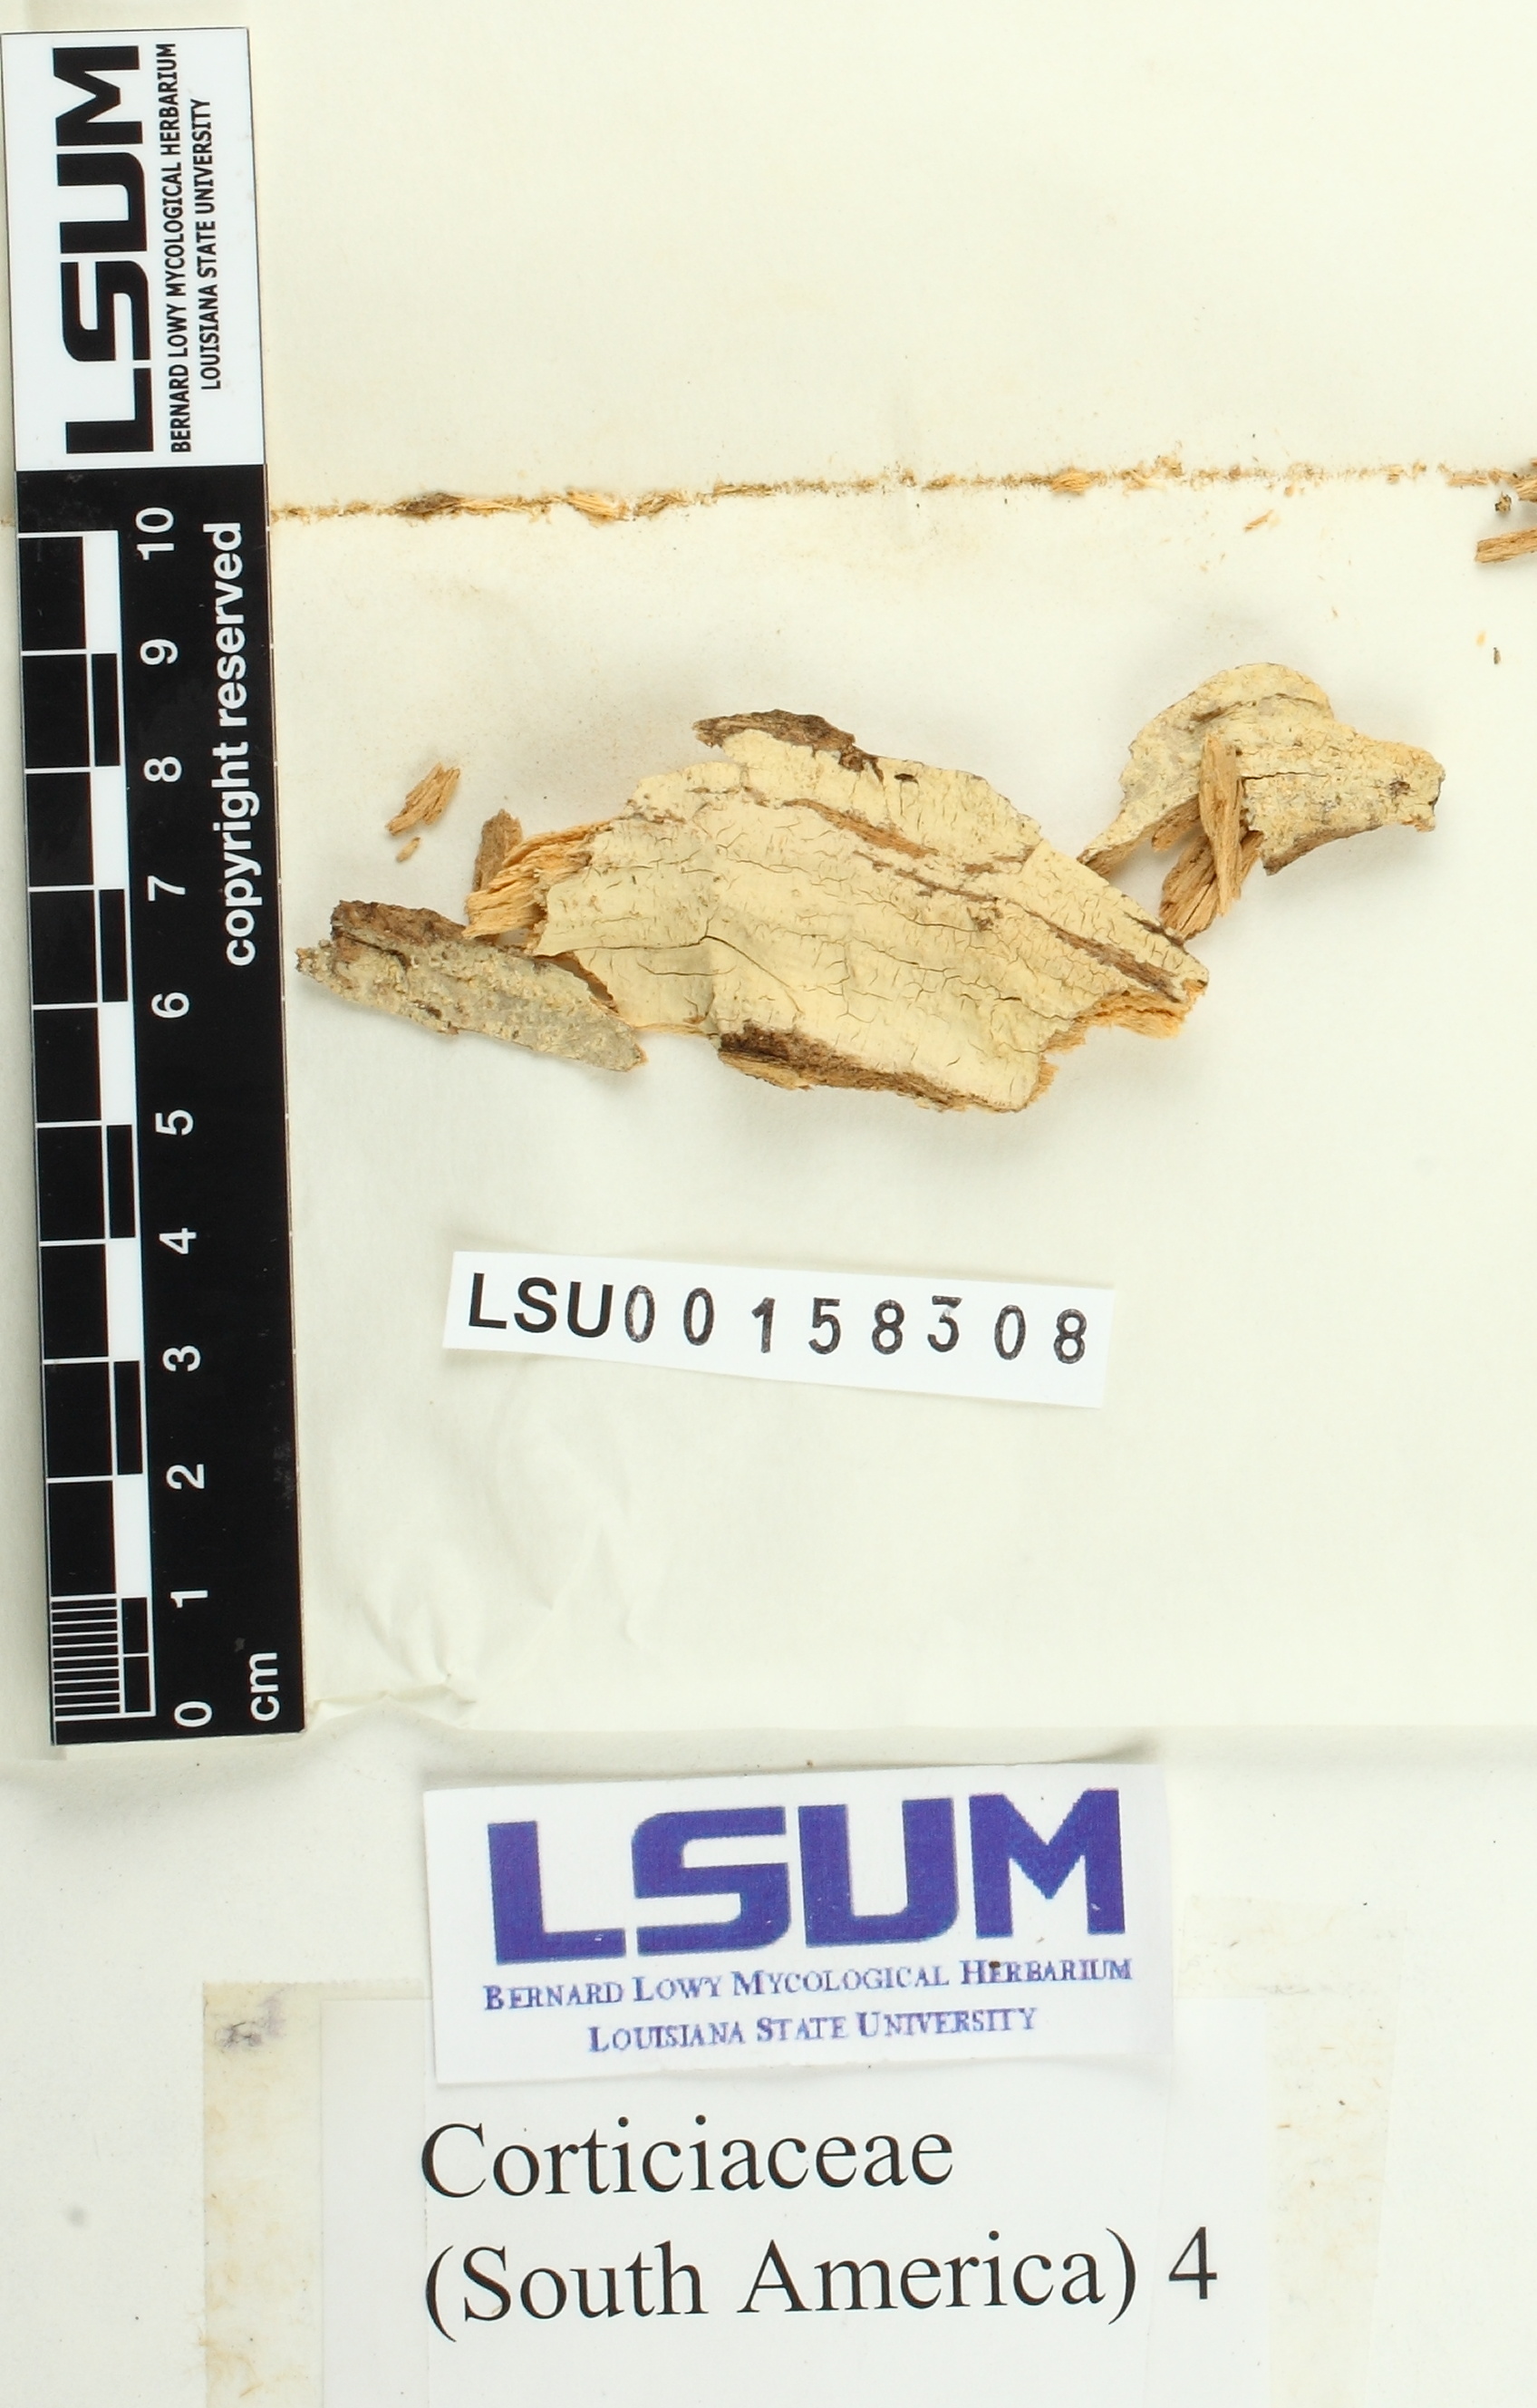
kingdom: Fungi
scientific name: Fungi
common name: Fungi
